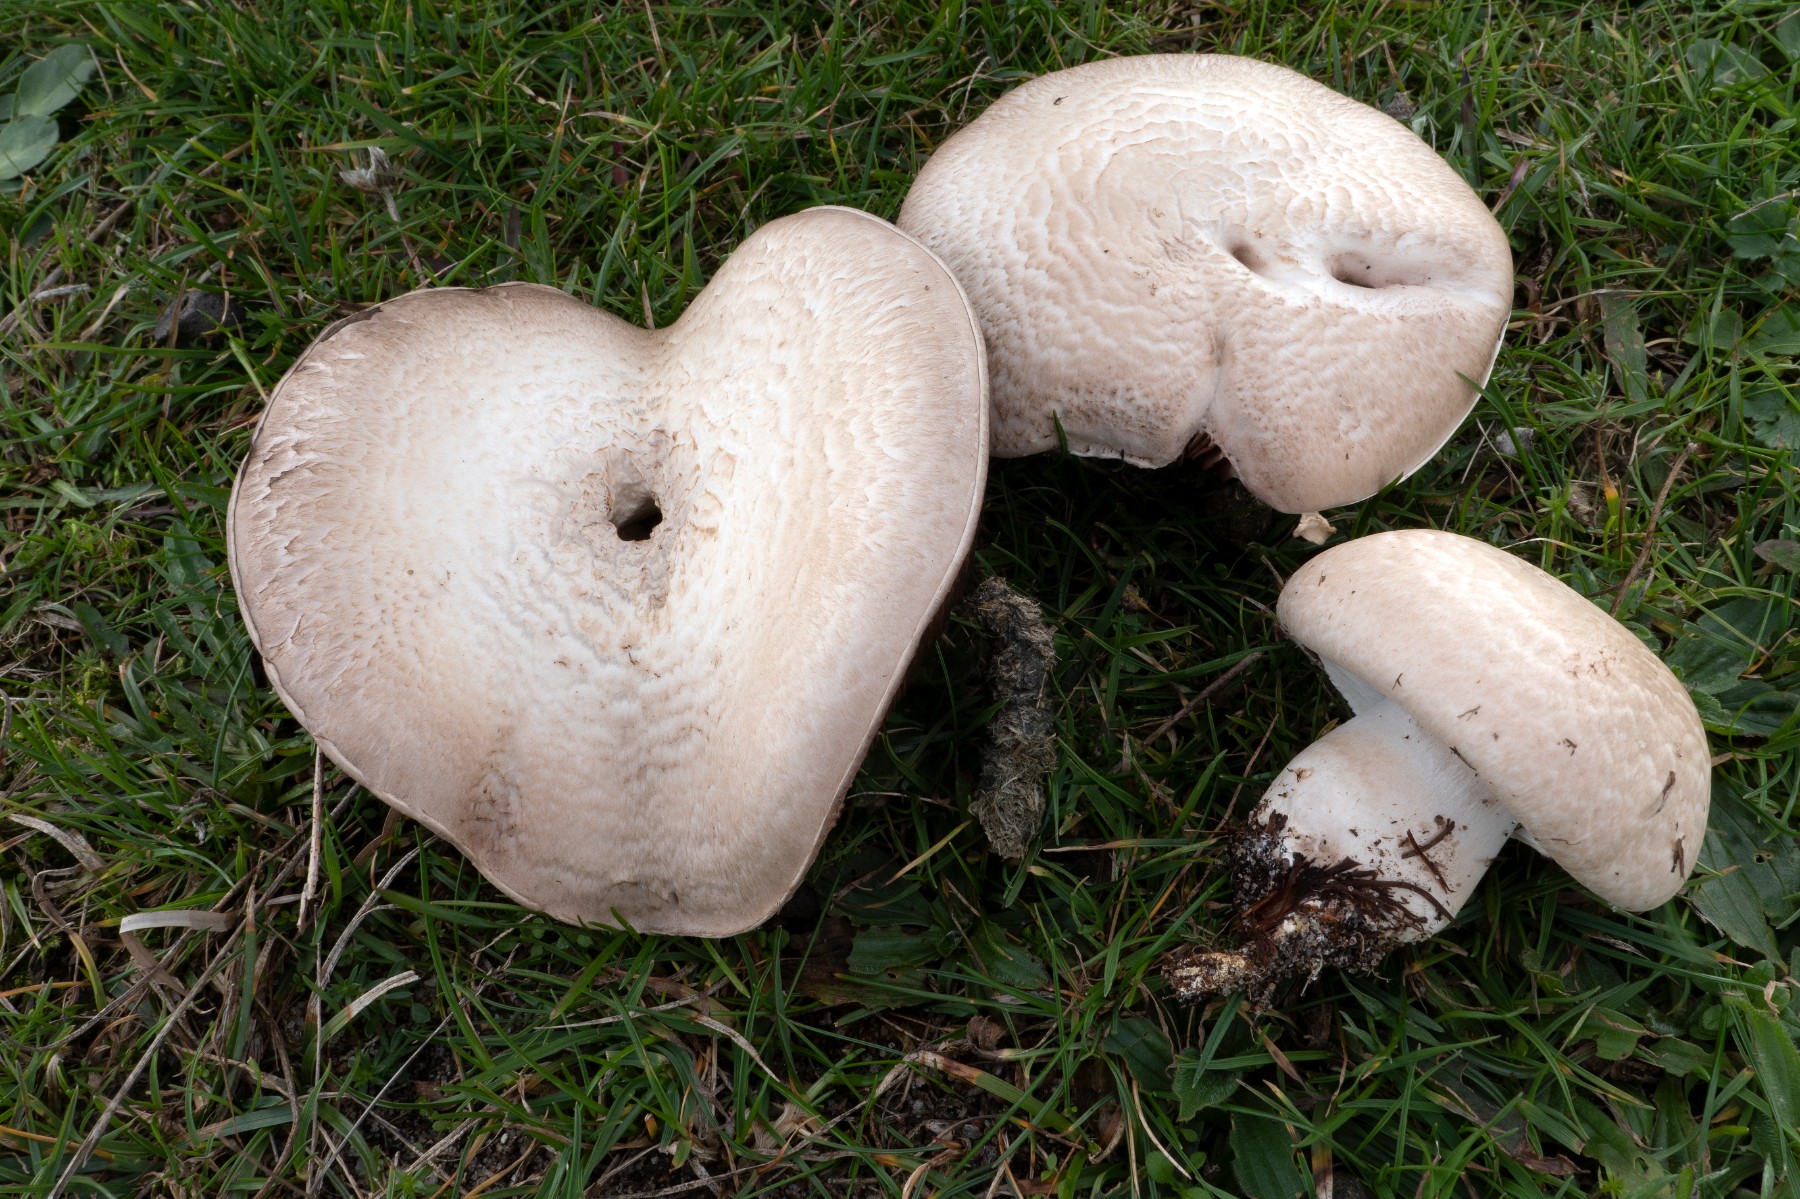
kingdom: Fungi
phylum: Basidiomycota
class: Agaricomycetes
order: Agaricales
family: Agaricaceae
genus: Agaricus
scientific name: Agaricus litoralis
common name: kyst-champignon
